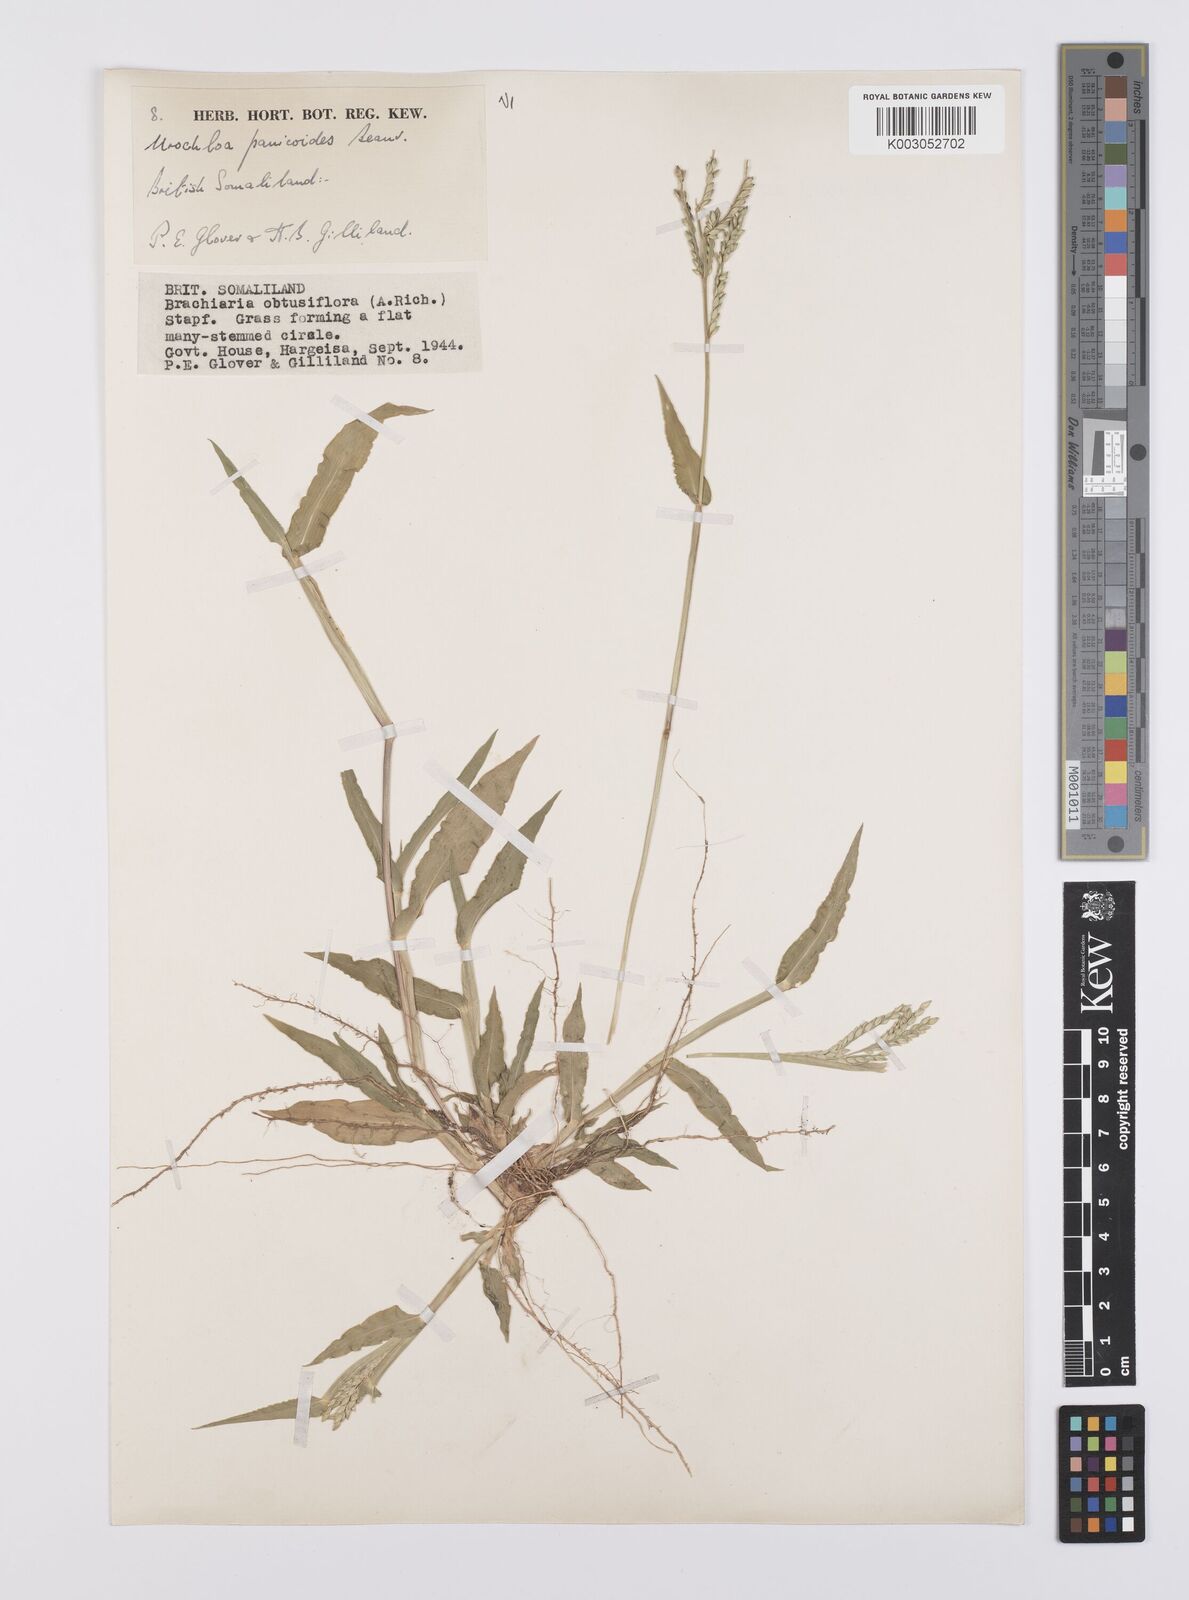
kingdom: Plantae
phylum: Tracheophyta
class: Liliopsida
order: Poales
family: Poaceae
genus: Urochloa
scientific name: Urochloa panicoides
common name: Sharp-flowered signal-grass
